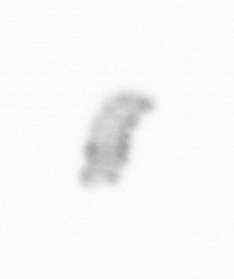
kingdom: Chromista
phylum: Ochrophyta
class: Bacillariophyceae
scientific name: Bacillariophyceae
